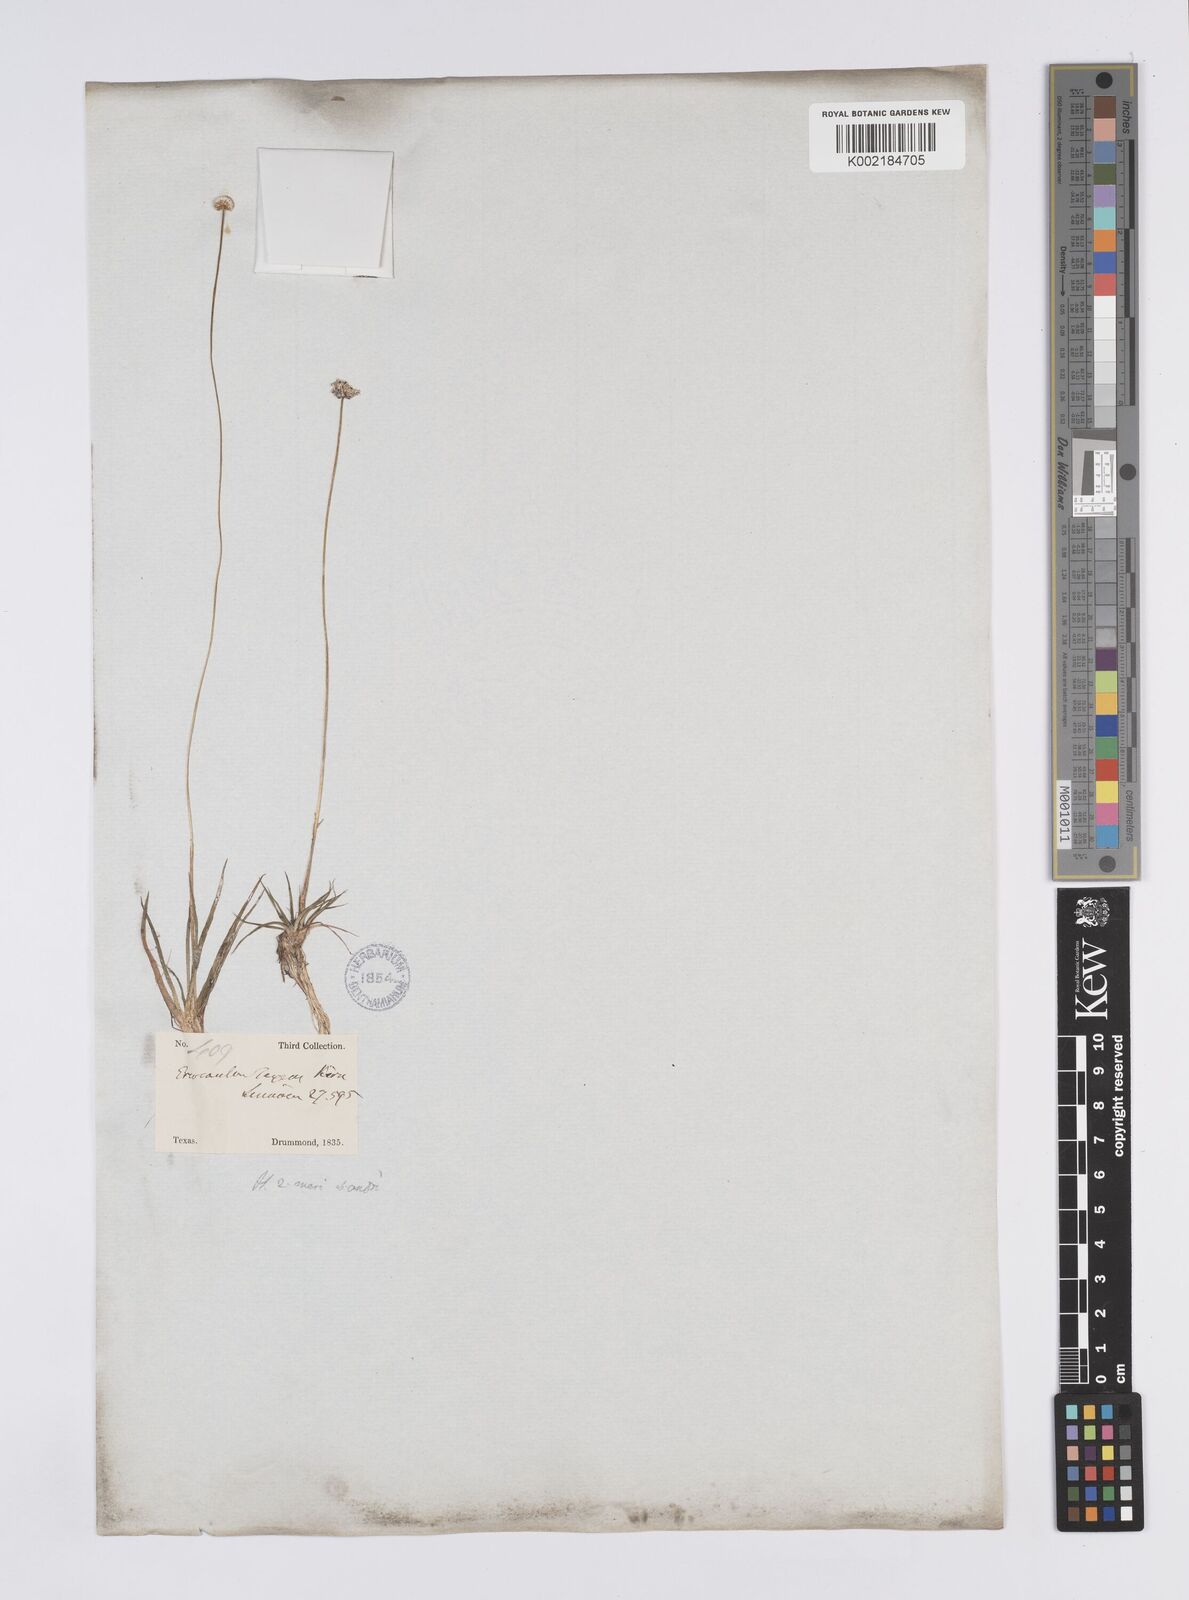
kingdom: Plantae
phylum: Tracheophyta
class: Liliopsida
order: Poales
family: Eriocaulaceae
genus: Eriocaulon
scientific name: Eriocaulon texense
